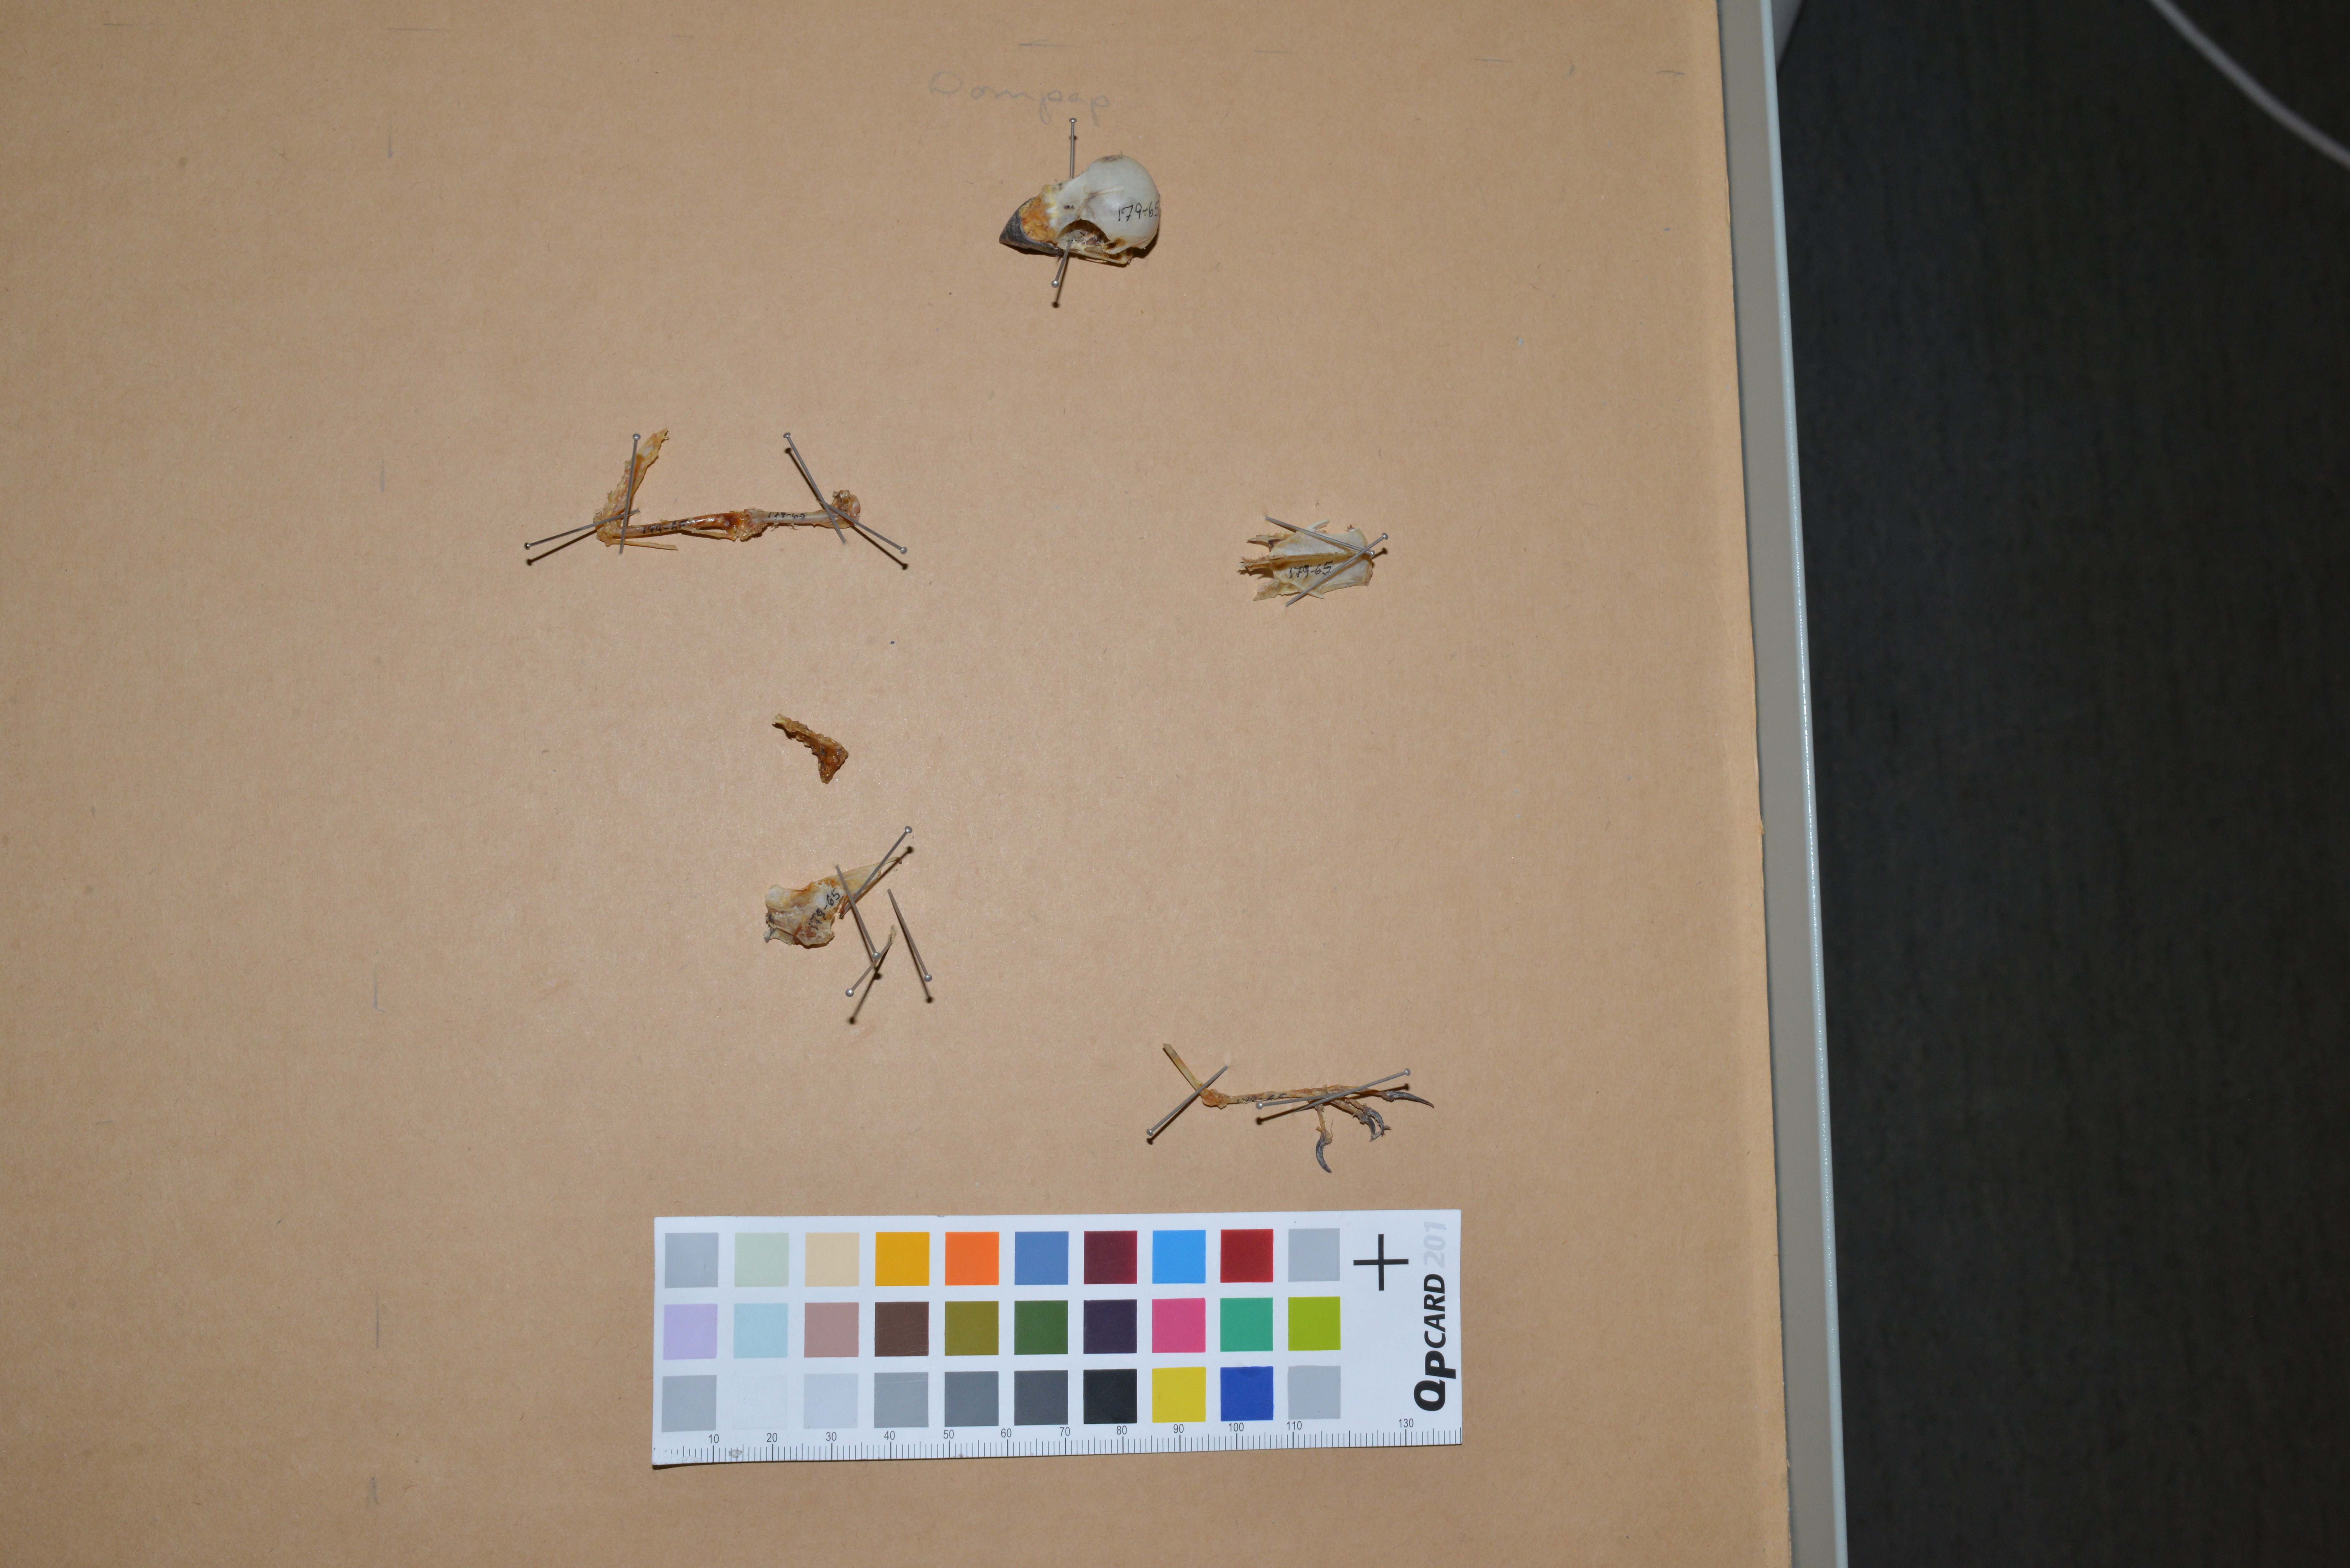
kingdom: Animalia
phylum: Chordata
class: Aves
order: Passeriformes
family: Fringillidae
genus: Pyrrhula
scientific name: Pyrrhula pyrrhula
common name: Eurasian bullfinch
